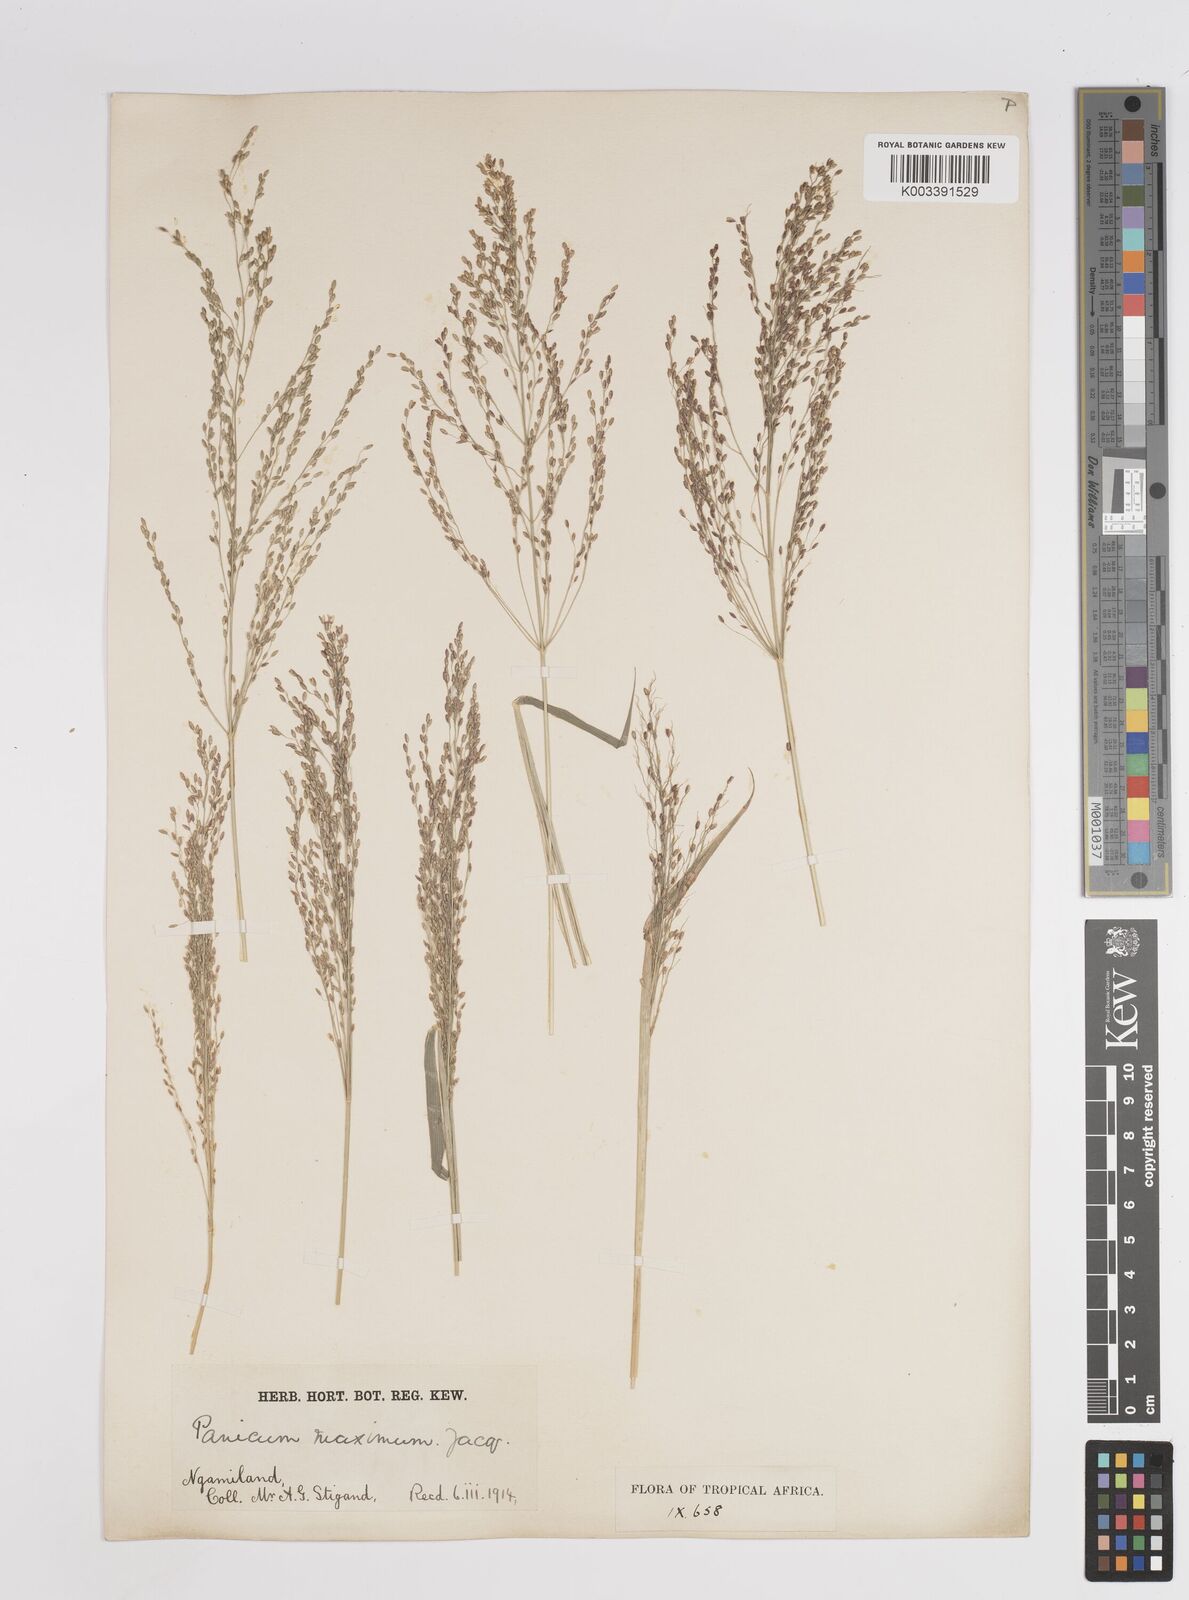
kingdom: Plantae
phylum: Tracheophyta
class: Liliopsida
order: Poales
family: Poaceae
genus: Megathyrsus
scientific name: Megathyrsus maximus
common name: Guineagrass
